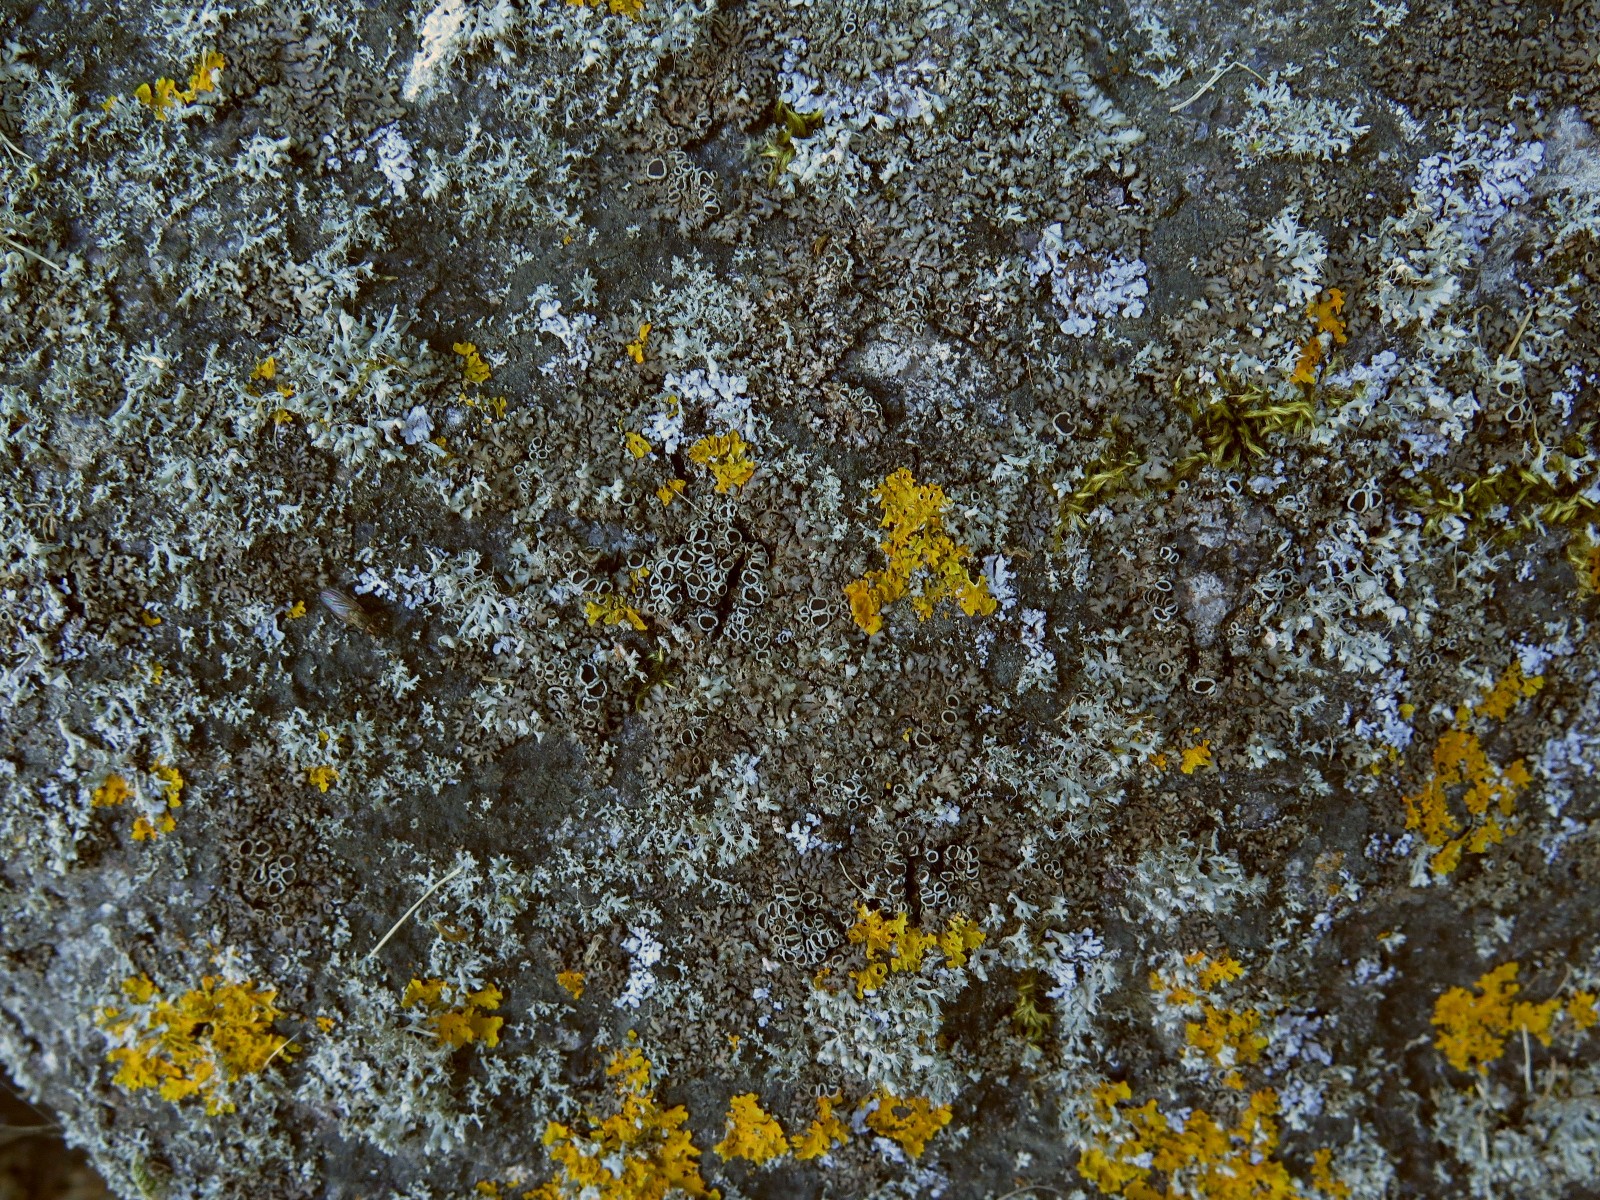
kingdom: Fungi
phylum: Ascomycota
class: Lecanoromycetes
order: Caliciales
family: Physciaceae
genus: Phaeophyscia
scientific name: Phaeophyscia orbicularis
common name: grågrøn rosetlav
